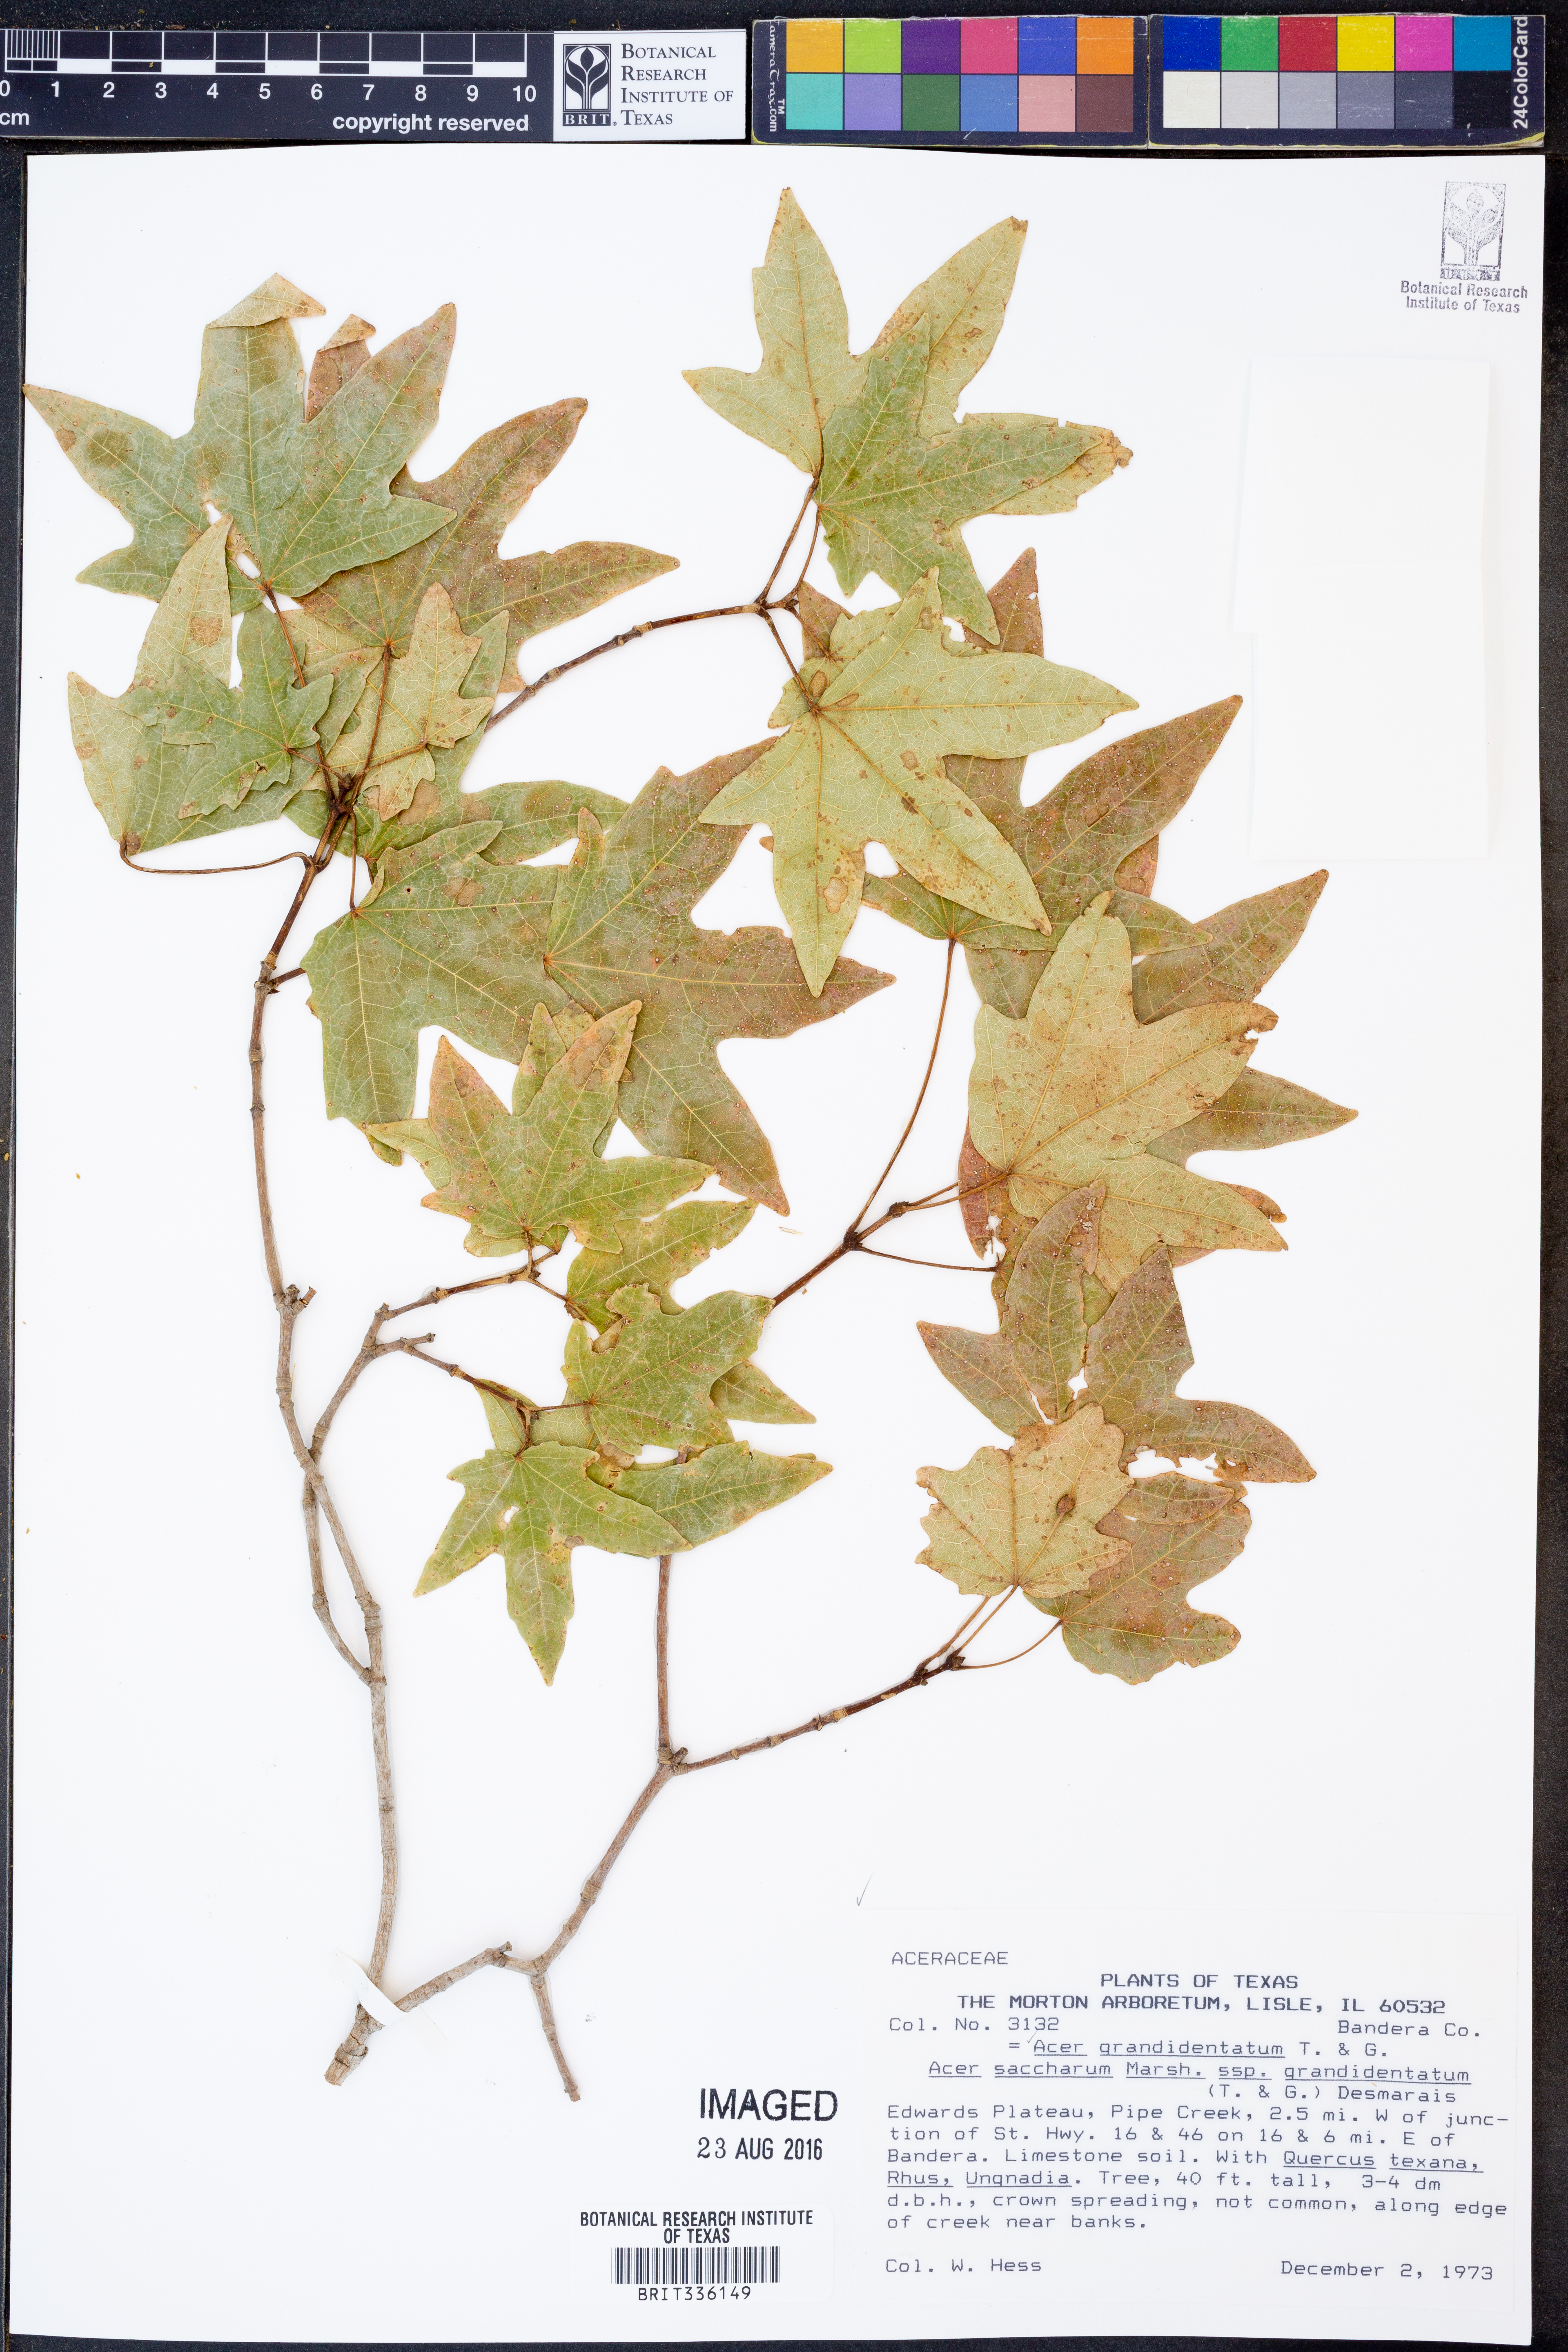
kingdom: Plantae
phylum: Tracheophyta
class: Magnoliopsida
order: Sapindales
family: Sapindaceae
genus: Acer
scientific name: Acer grandidentatum
